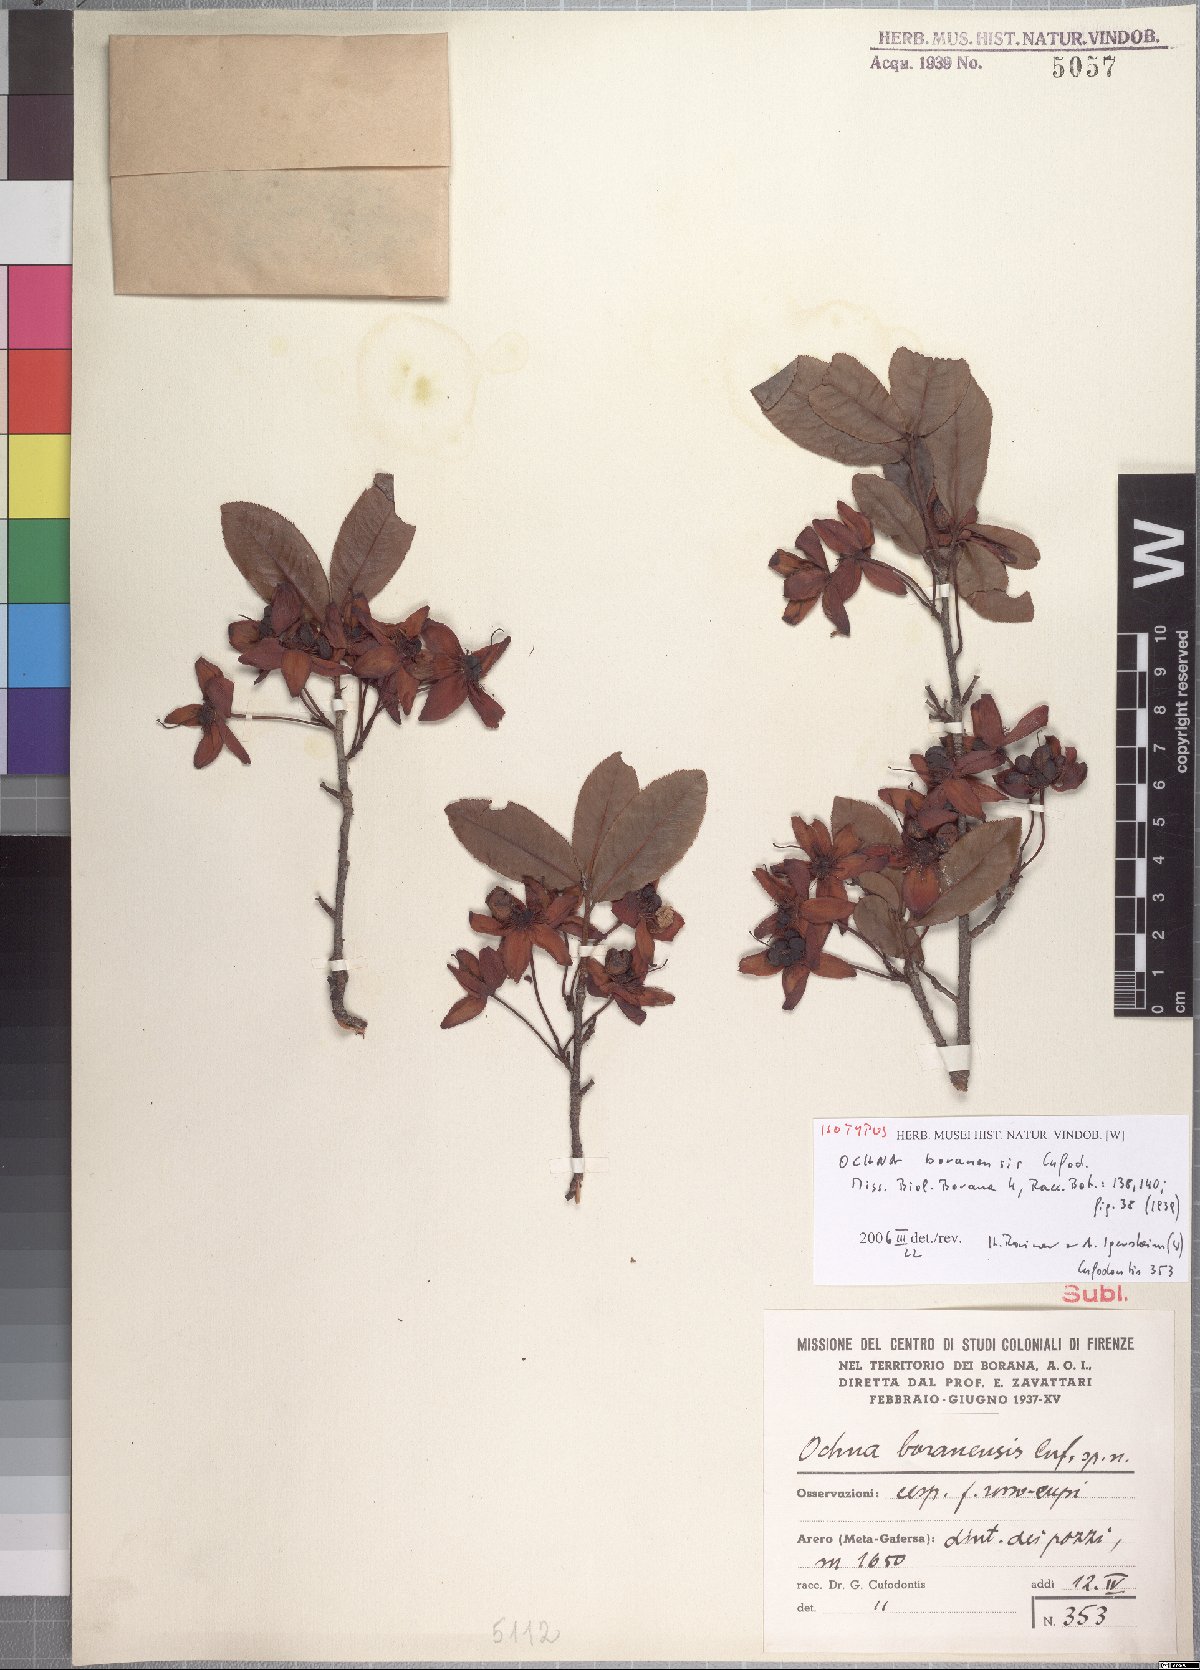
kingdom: Plantae
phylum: Tracheophyta
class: Magnoliopsida
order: Malpighiales
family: Ochnaceae
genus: Ochna
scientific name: Ochna insculpta
